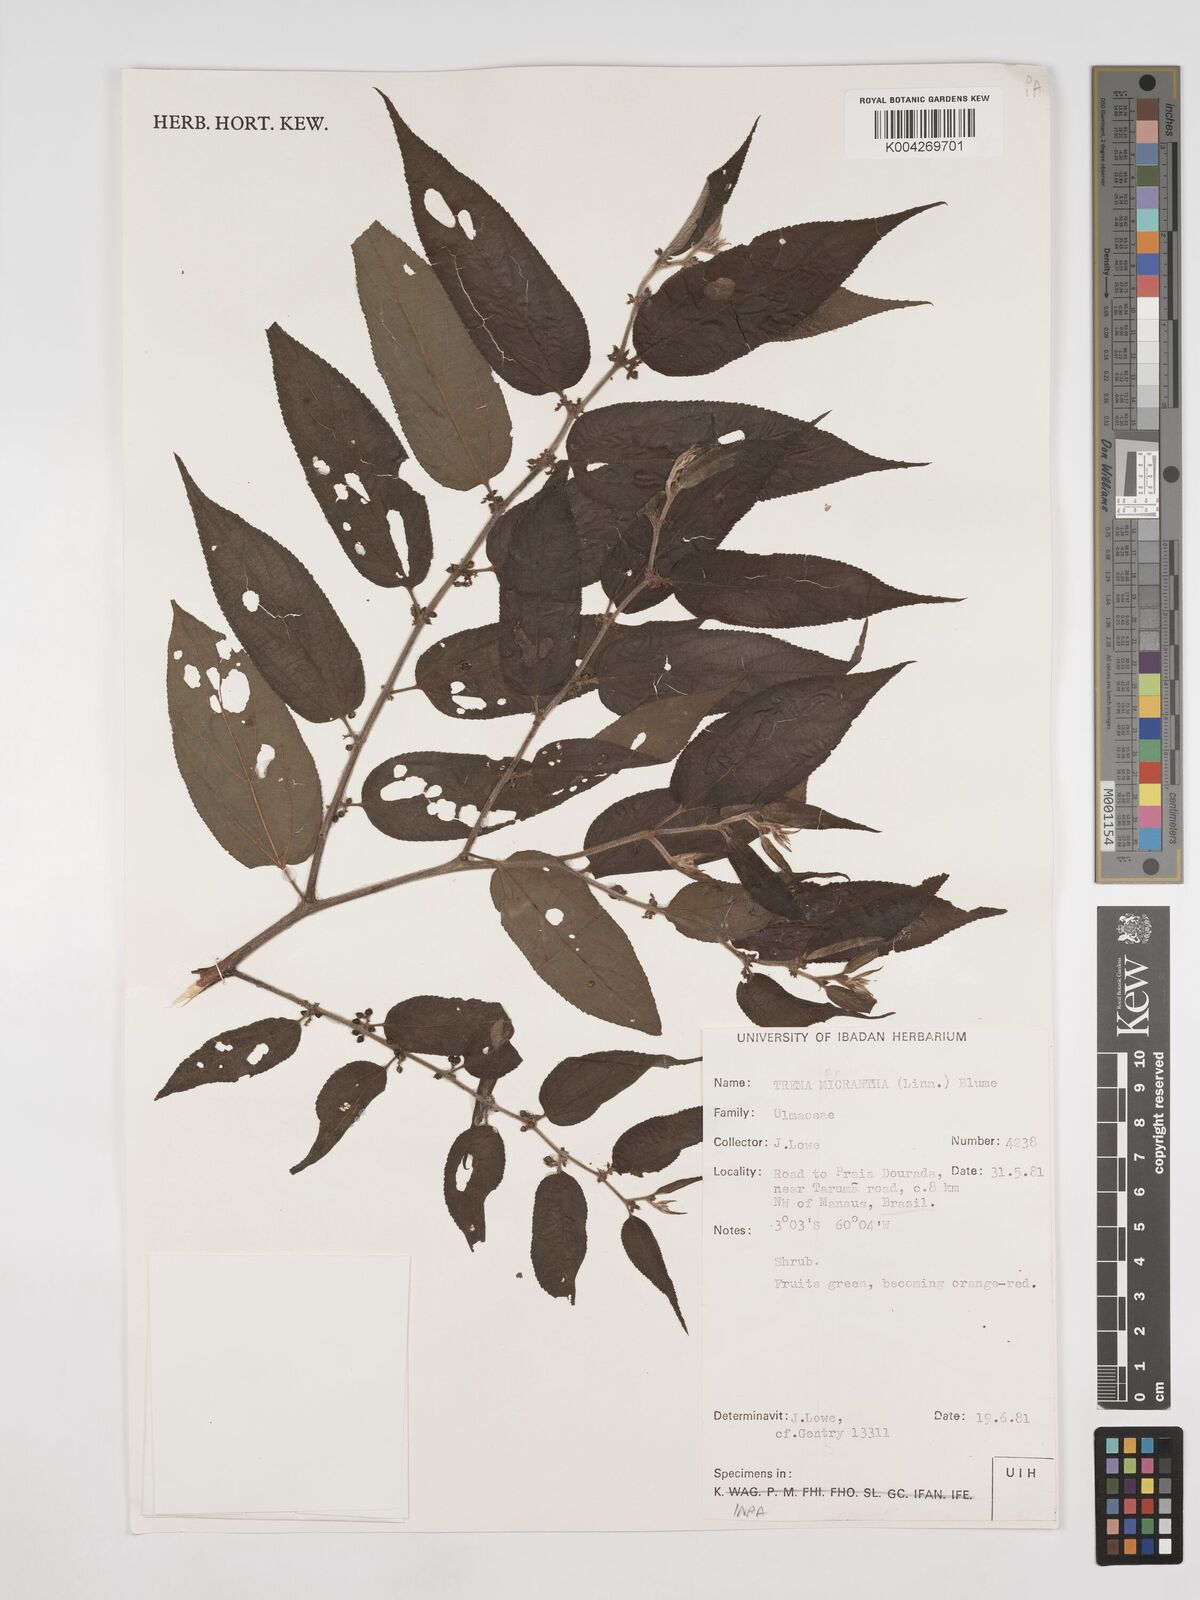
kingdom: Plantae
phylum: Tracheophyta
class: Magnoliopsida
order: Rosales
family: Cannabaceae
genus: Trema
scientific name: Trema micranthum
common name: Jamaican nettletree
